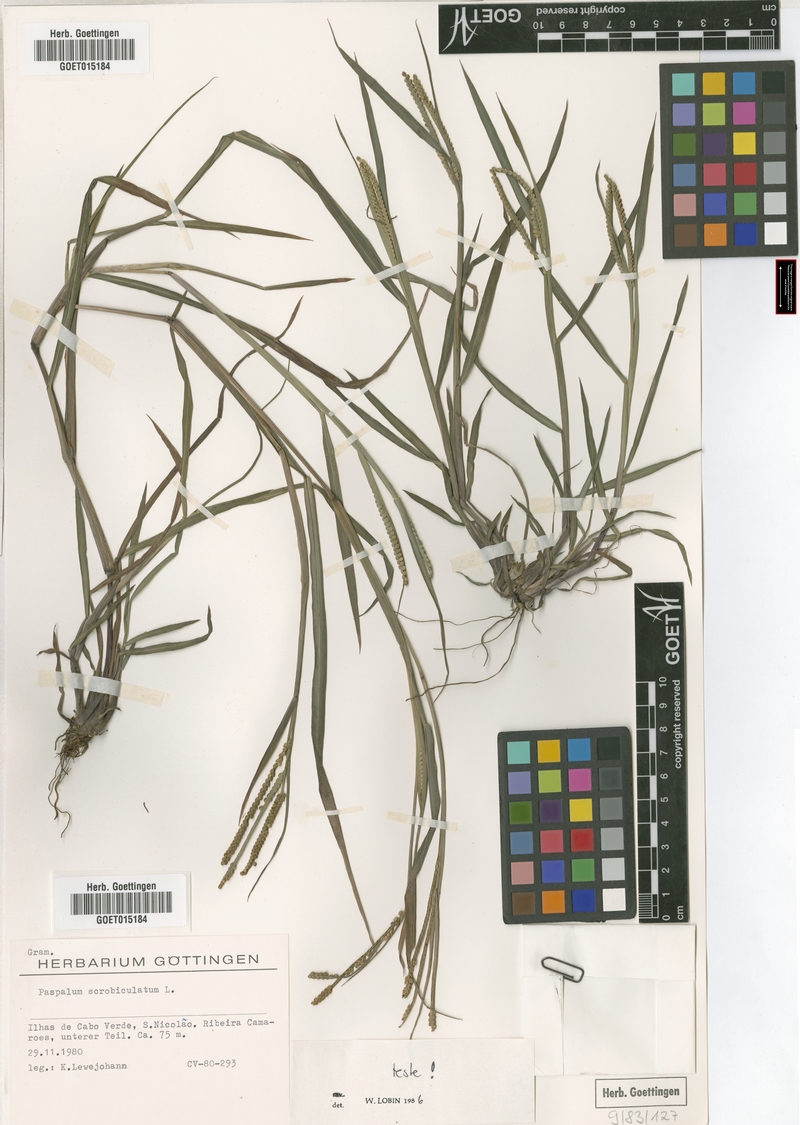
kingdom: Plantae
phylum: Tracheophyta
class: Liliopsida
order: Poales
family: Poaceae
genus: Paspalum
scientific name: Paspalum scrobiculatum
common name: Kodo millet
